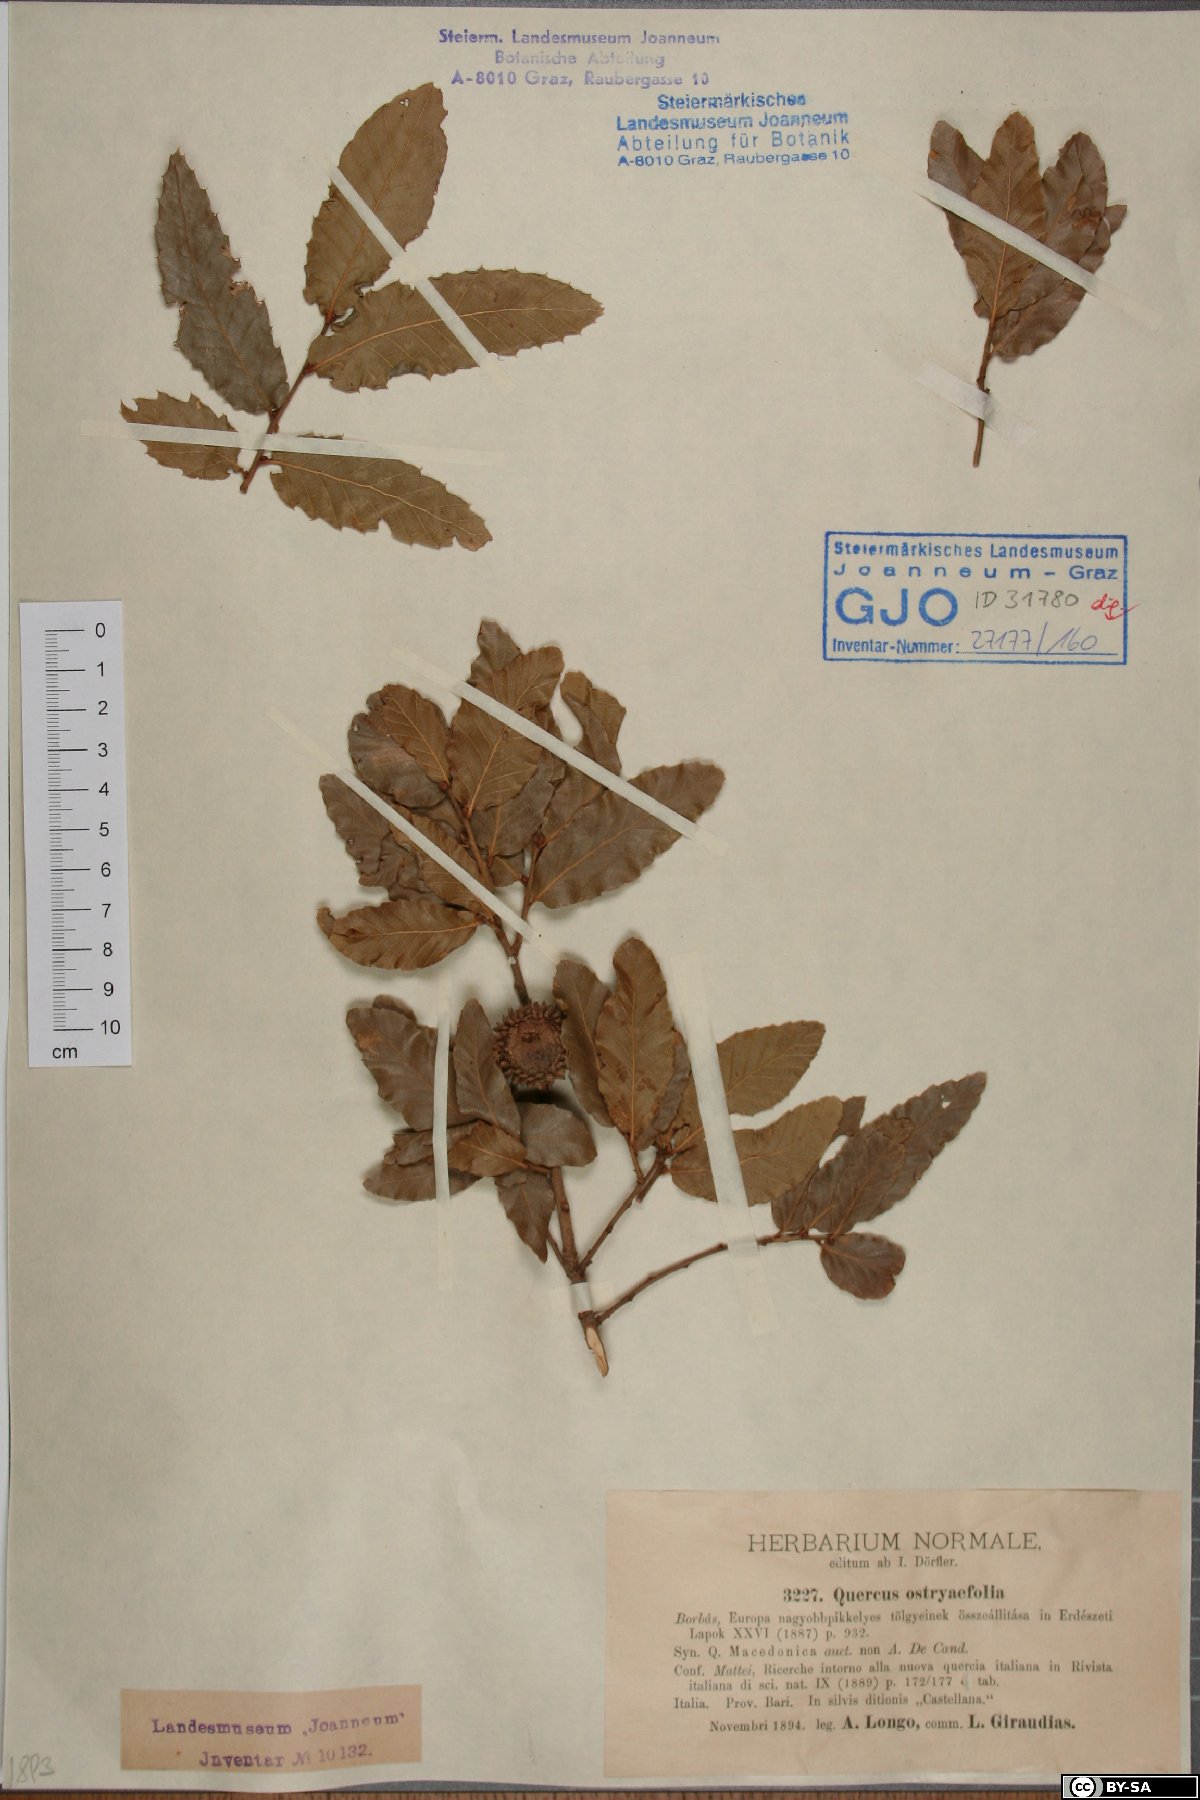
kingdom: Plantae
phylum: Tracheophyta
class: Magnoliopsida
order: Fagales
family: Fagaceae
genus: Quercus
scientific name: Quercus trojana
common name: Macedonian oak
